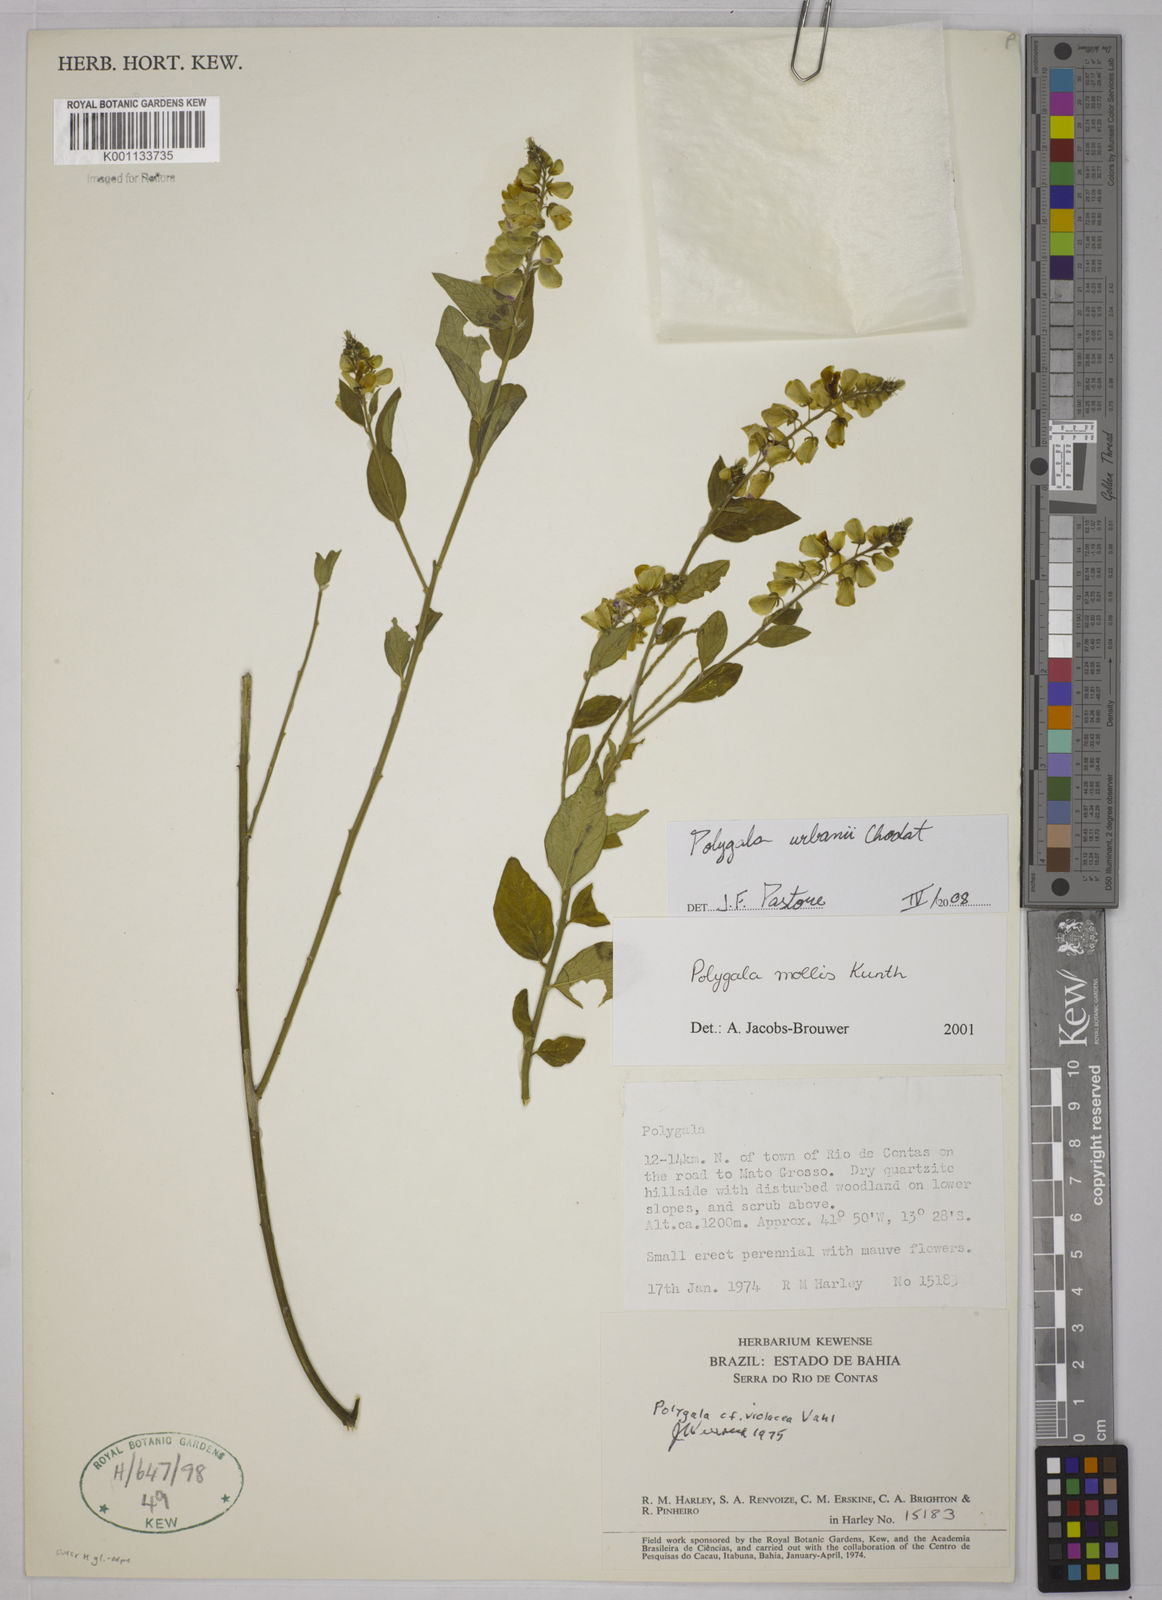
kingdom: Plantae
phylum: Tracheophyta
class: Magnoliopsida
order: Fabales
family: Polygalaceae
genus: Asemeia
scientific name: Asemeia monninoides
